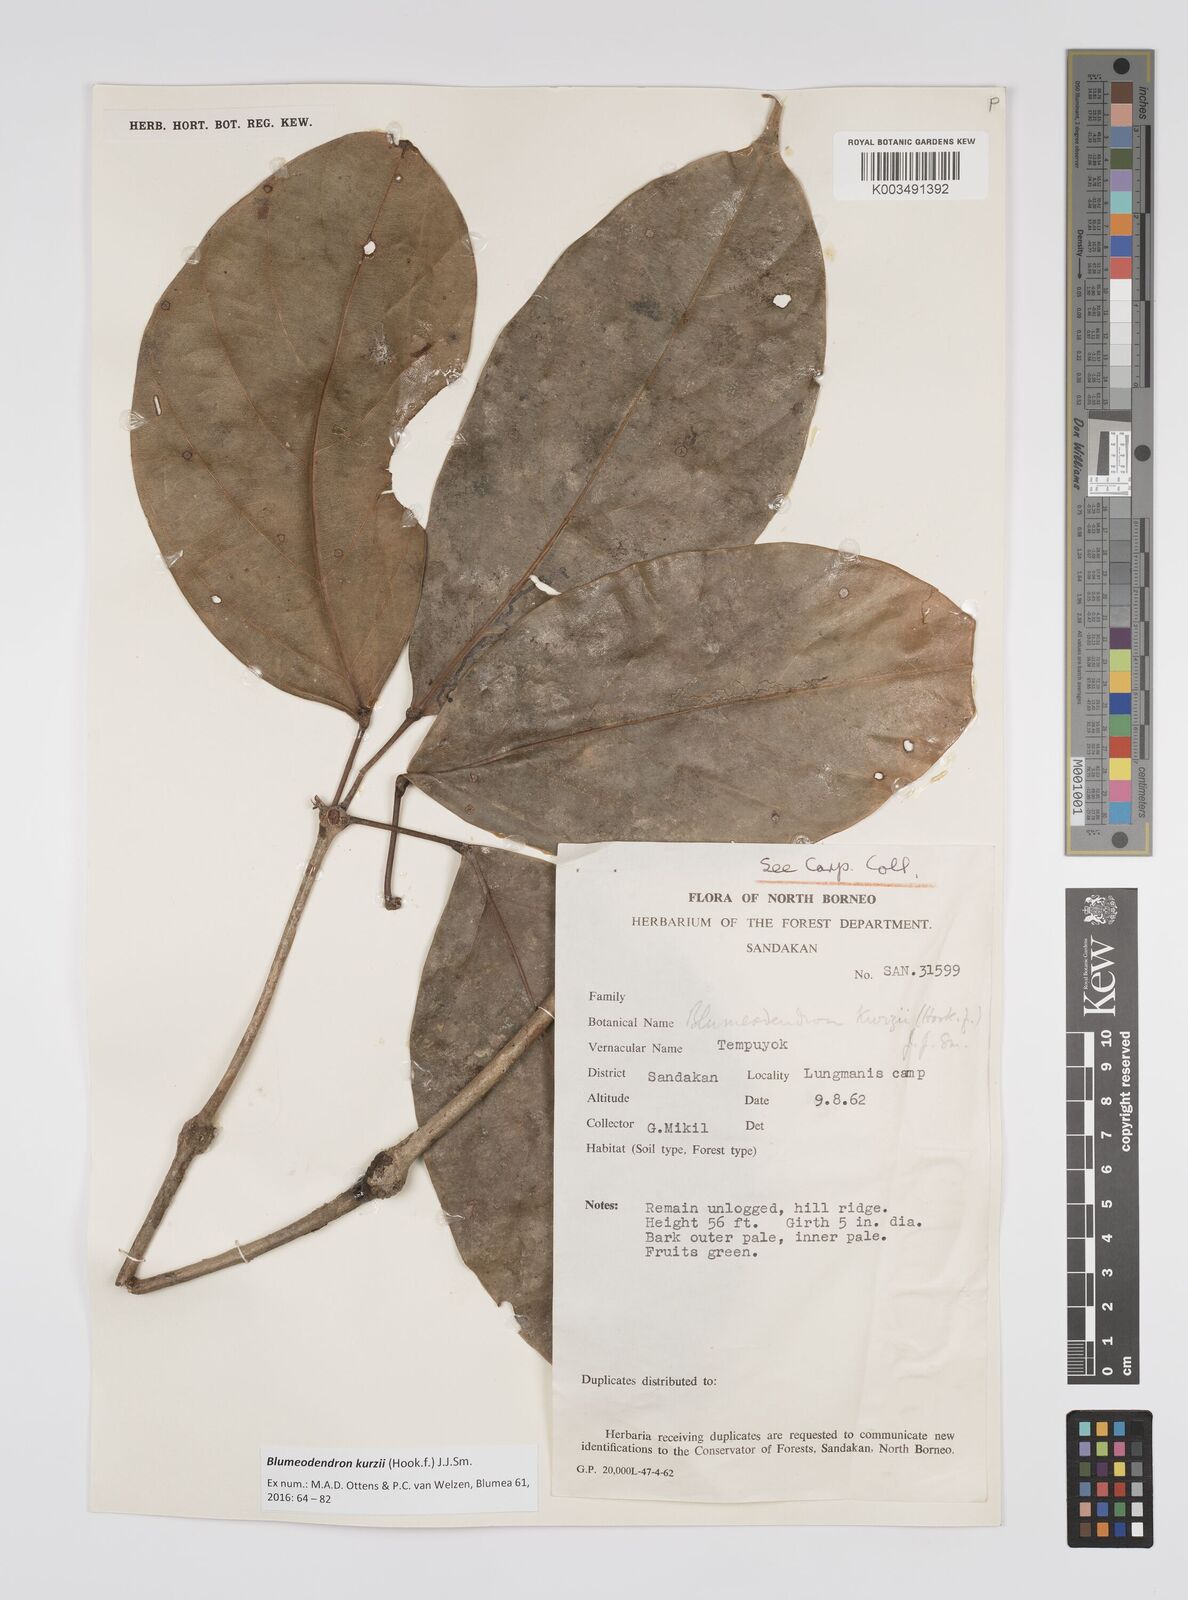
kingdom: Plantae
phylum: Tracheophyta
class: Magnoliopsida
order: Malpighiales
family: Euphorbiaceae
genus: Blumeodendron
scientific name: Blumeodendron kurzii
